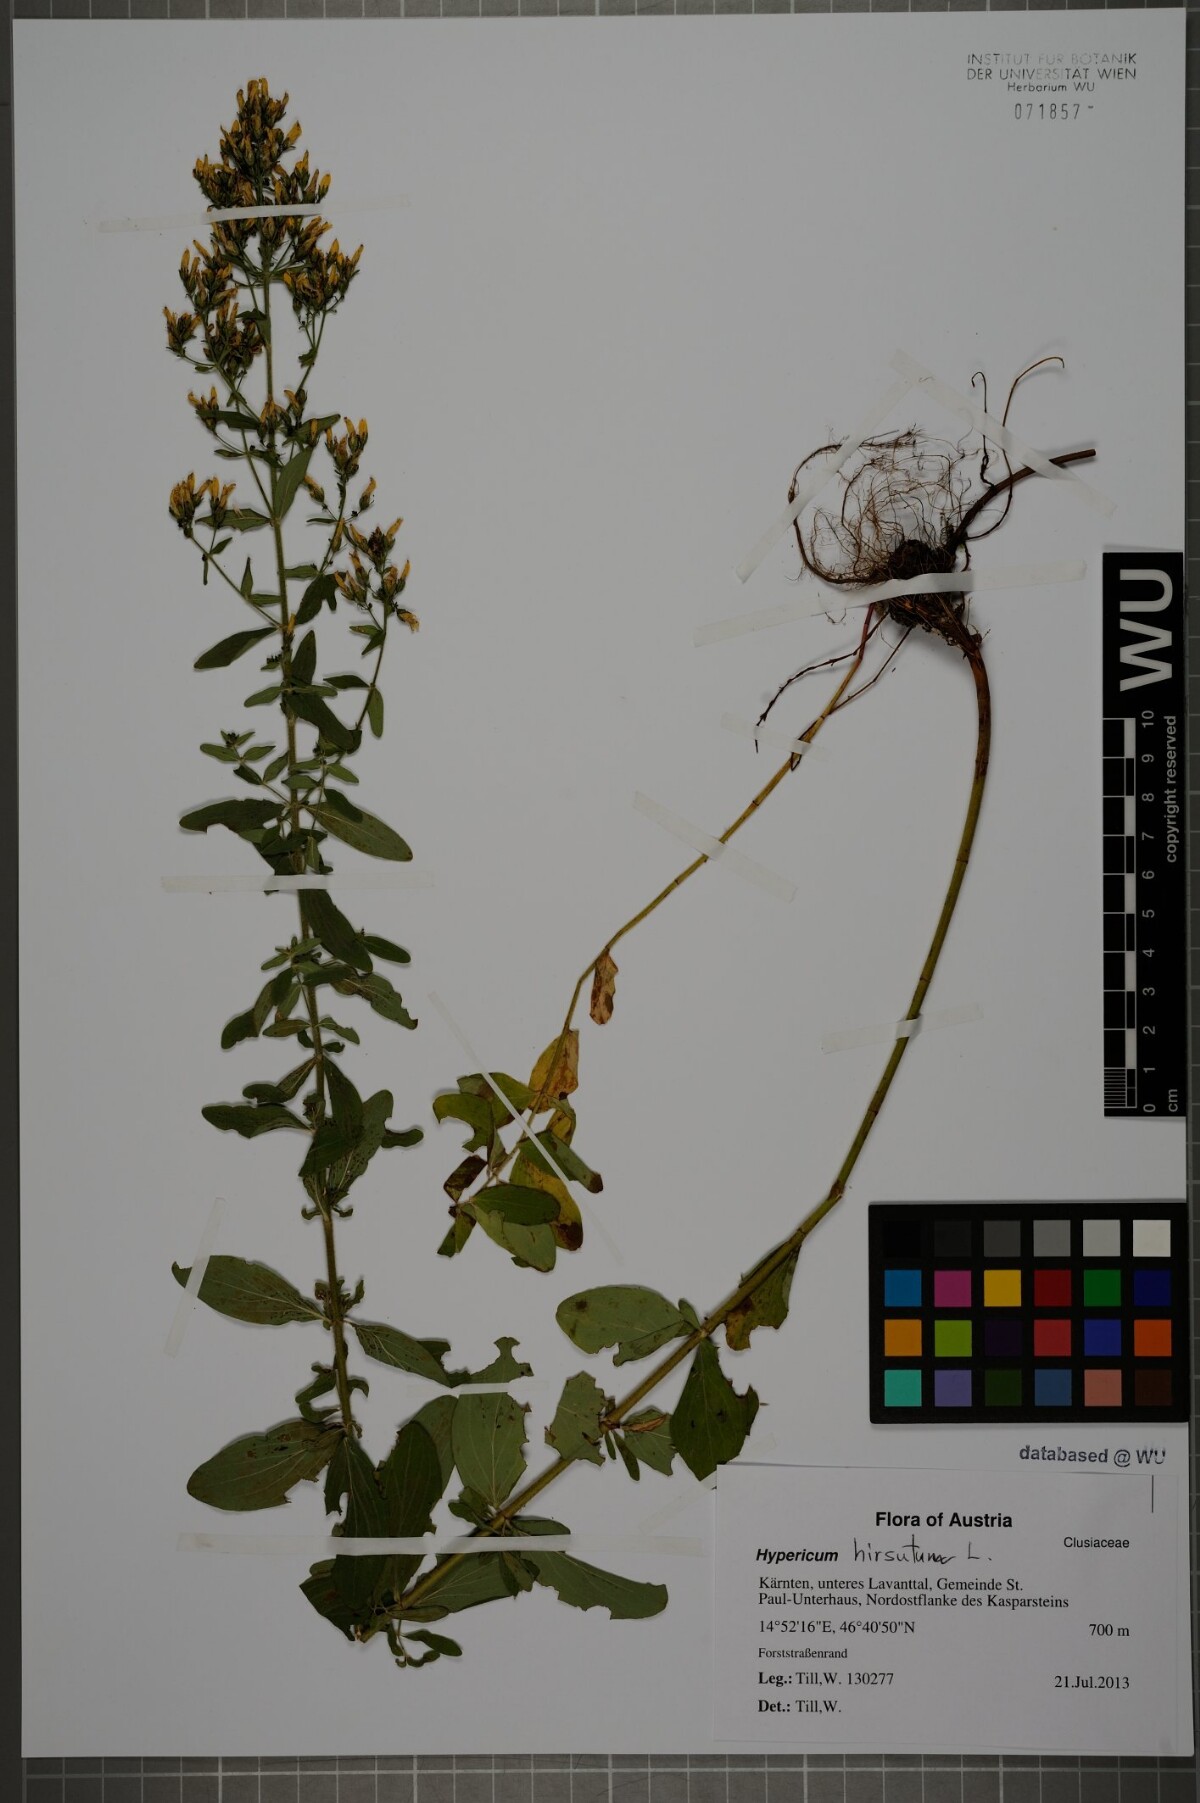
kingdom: Plantae
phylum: Tracheophyta
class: Magnoliopsida
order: Malpighiales
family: Hypericaceae
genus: Hypericum
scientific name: Hypericum hirsutum
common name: Hairy st. john's-wort
